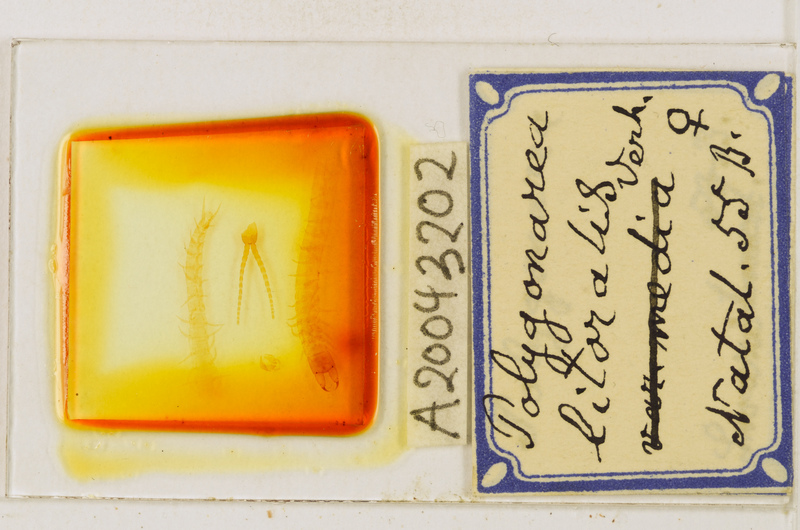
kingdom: Animalia
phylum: Arthropoda
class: Chilopoda
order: Geophilomorpha
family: Geophilidae
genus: Polygonarea
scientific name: Polygonarea litoralis
